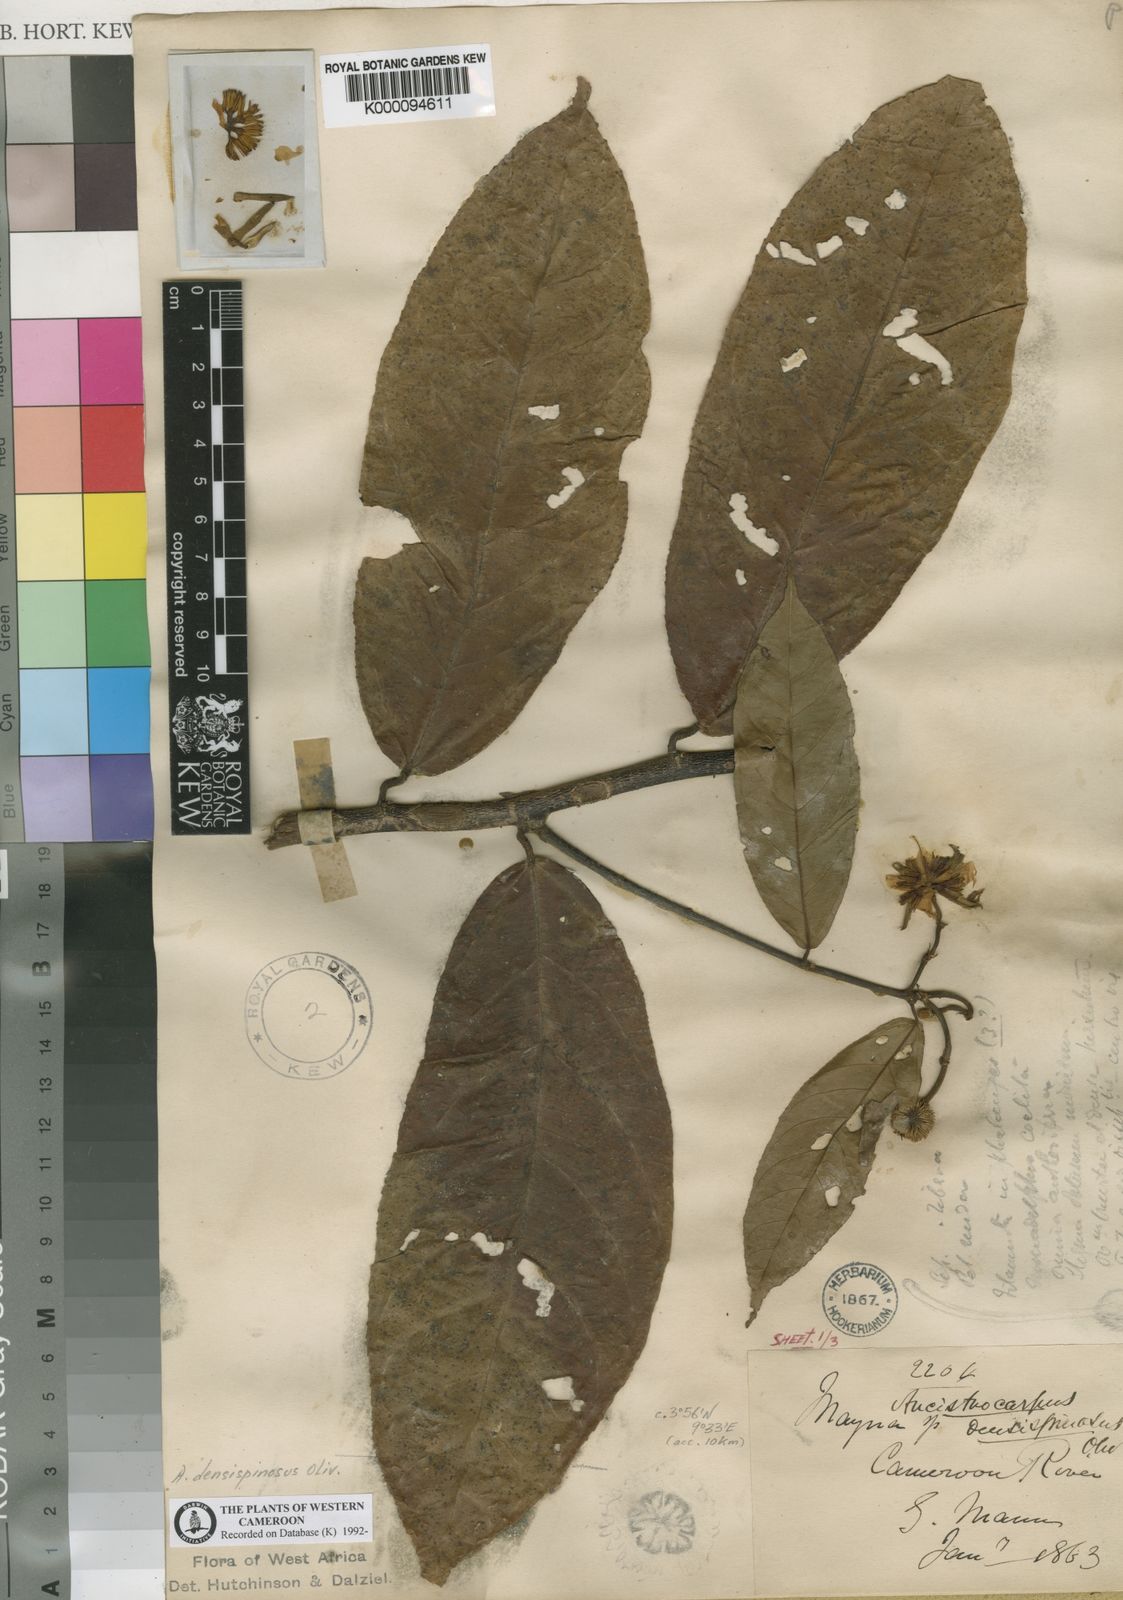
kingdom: Plantae
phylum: Tracheophyta
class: Magnoliopsida
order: Malvales
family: Malvaceae
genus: Ancistrocarpus
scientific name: Ancistrocarpus densispinosus
